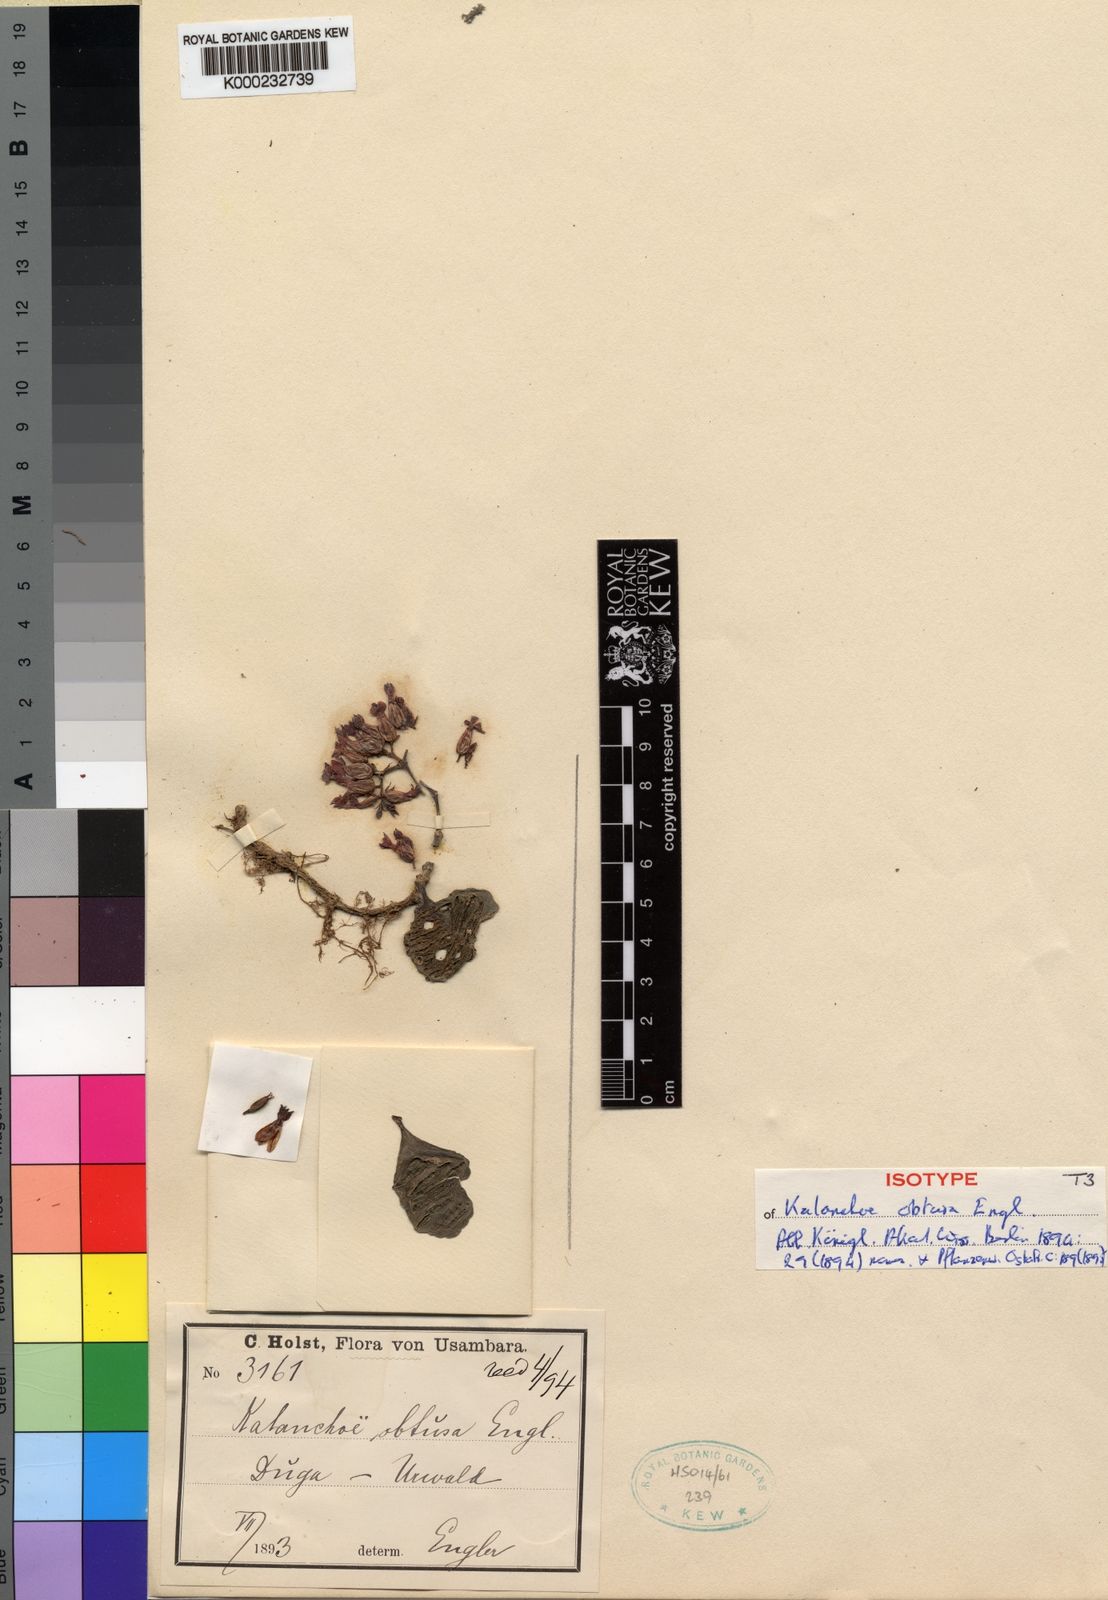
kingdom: Plantae
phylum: Tracheophyta
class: Magnoliopsida
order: Saxifragales
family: Crassulaceae
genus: Kalanchoe
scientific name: Kalanchoe obtusa
